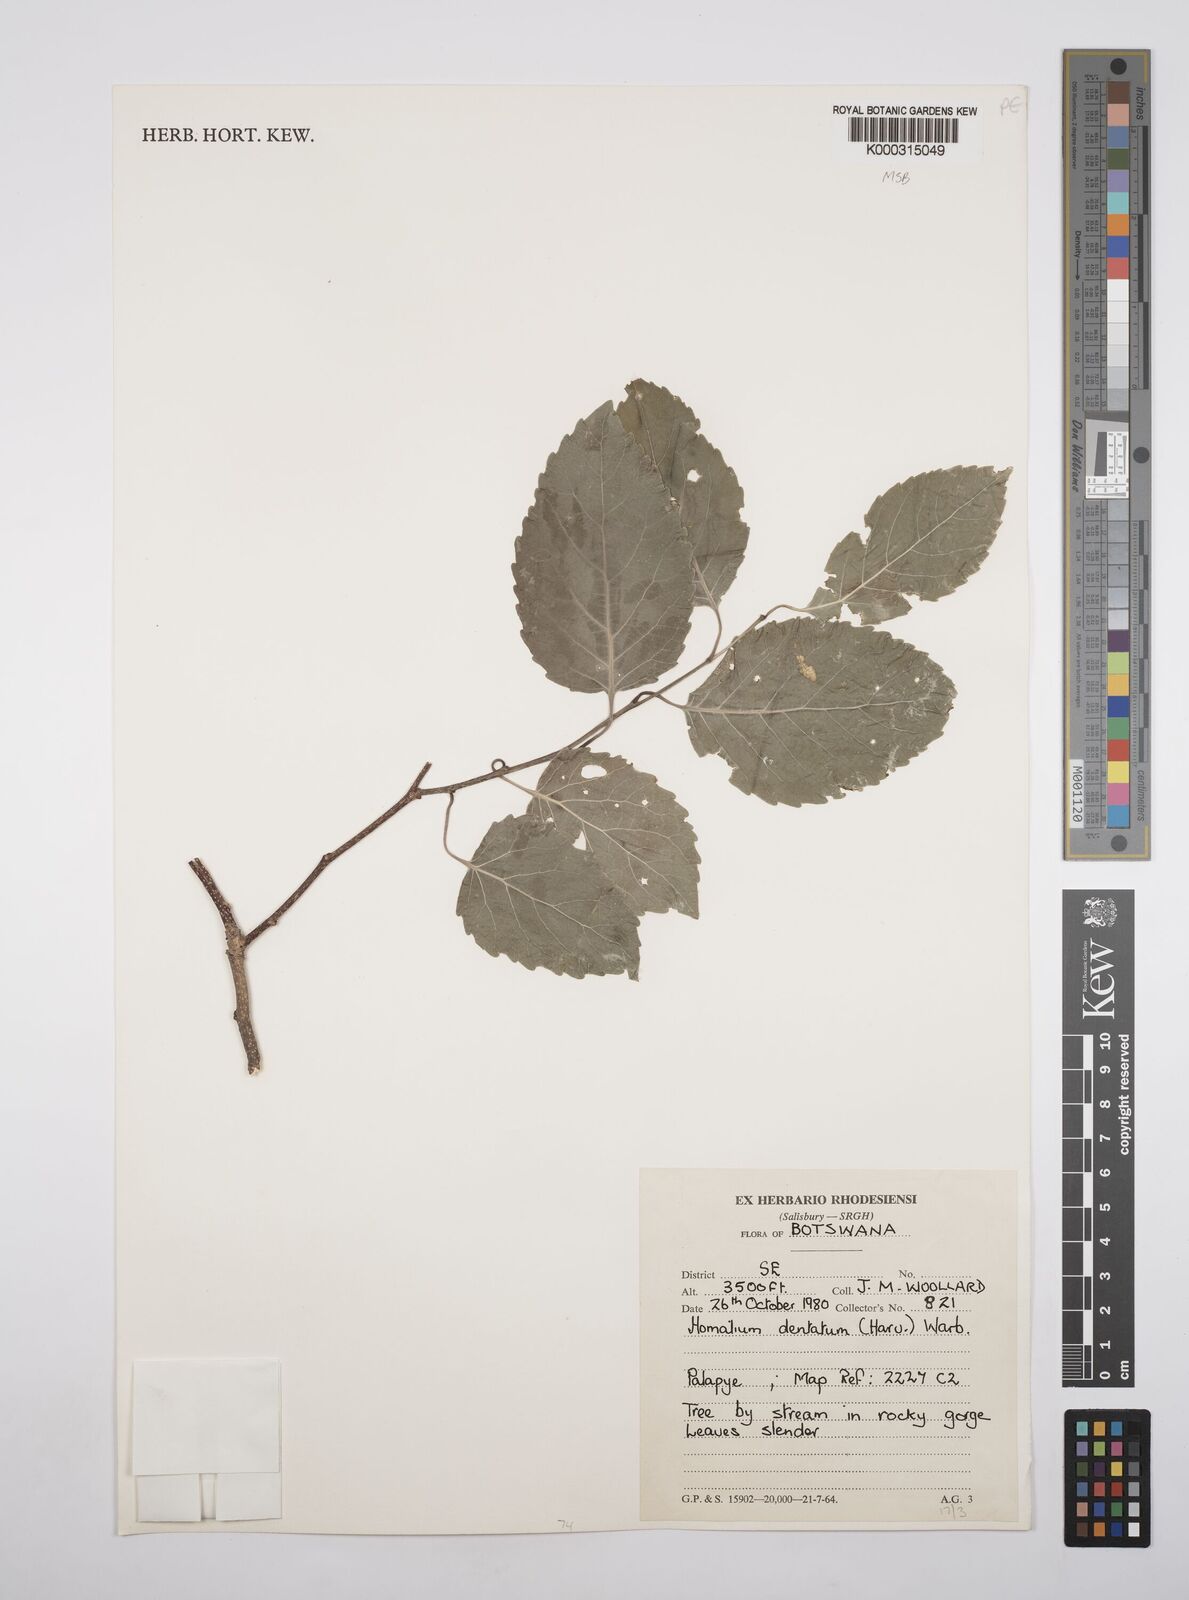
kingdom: Plantae
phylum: Tracheophyta
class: Magnoliopsida
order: Malpighiales
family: Salicaceae
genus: Homalium
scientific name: Homalium dentatum
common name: Brown ironwood
